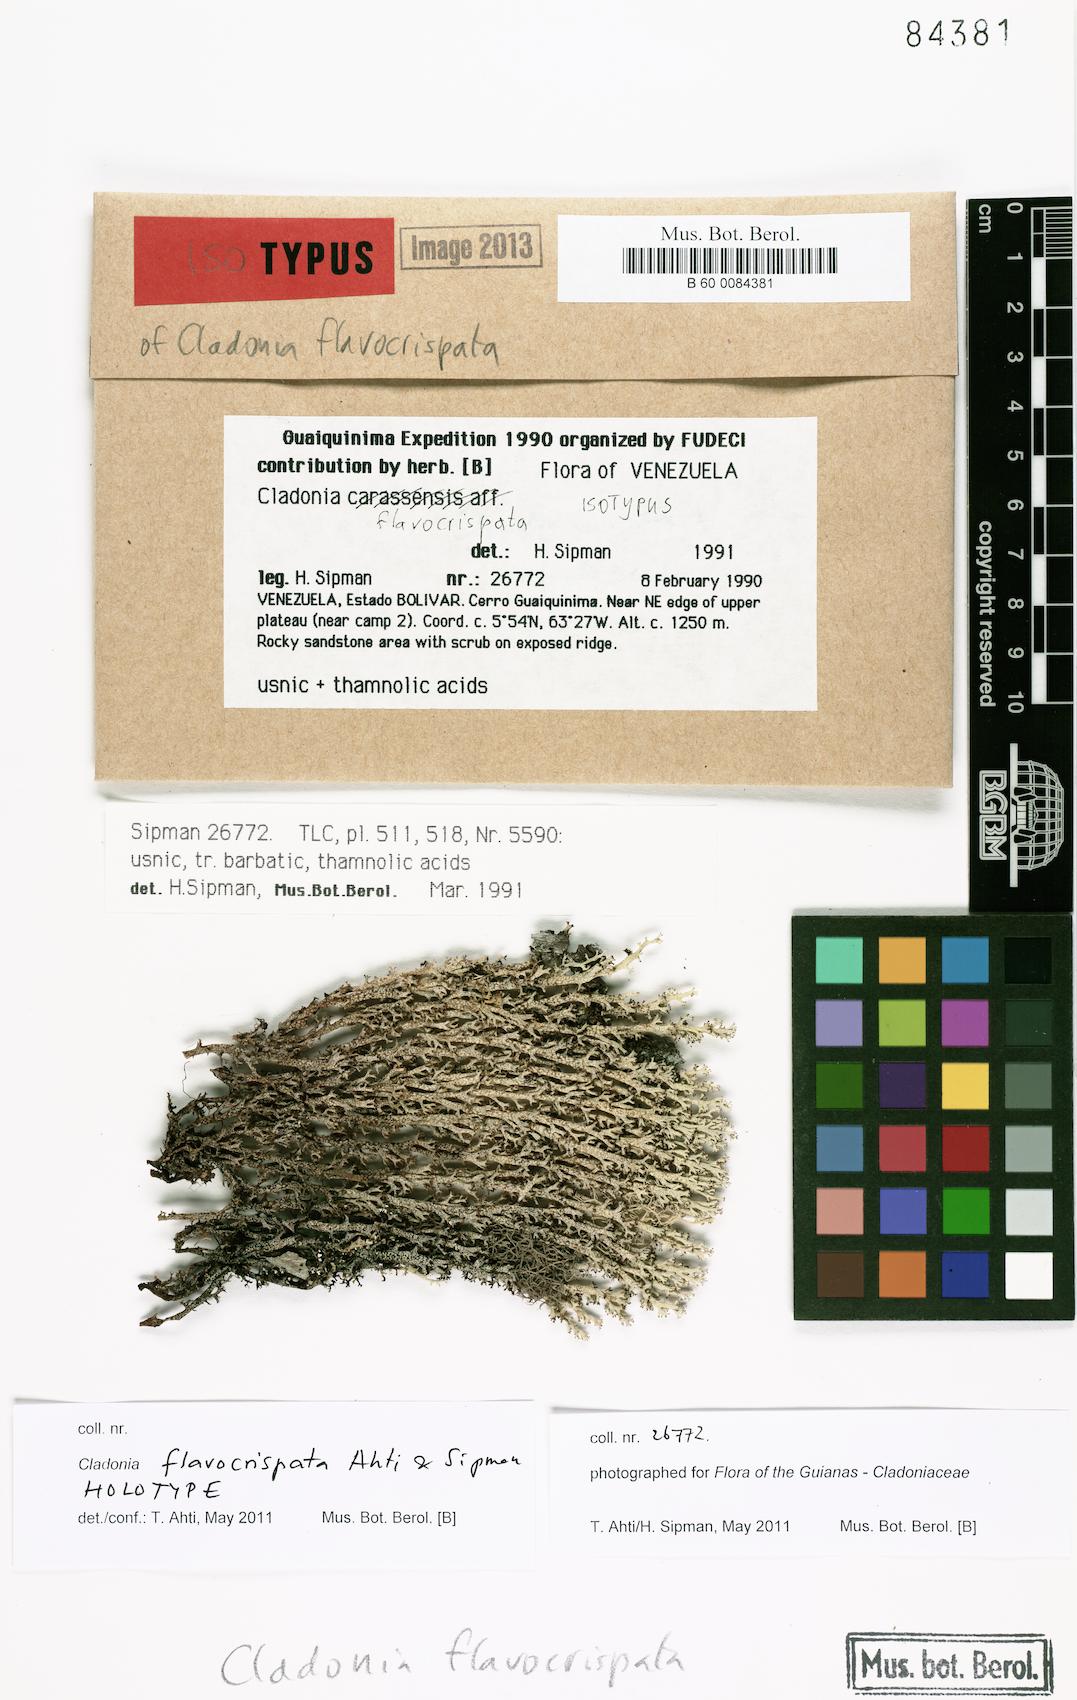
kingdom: Fungi
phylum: Ascomycota
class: Lecanoromycetes
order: Lecanorales
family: Cladoniaceae
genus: Cladonia
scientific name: Cladonia flavocrispata
